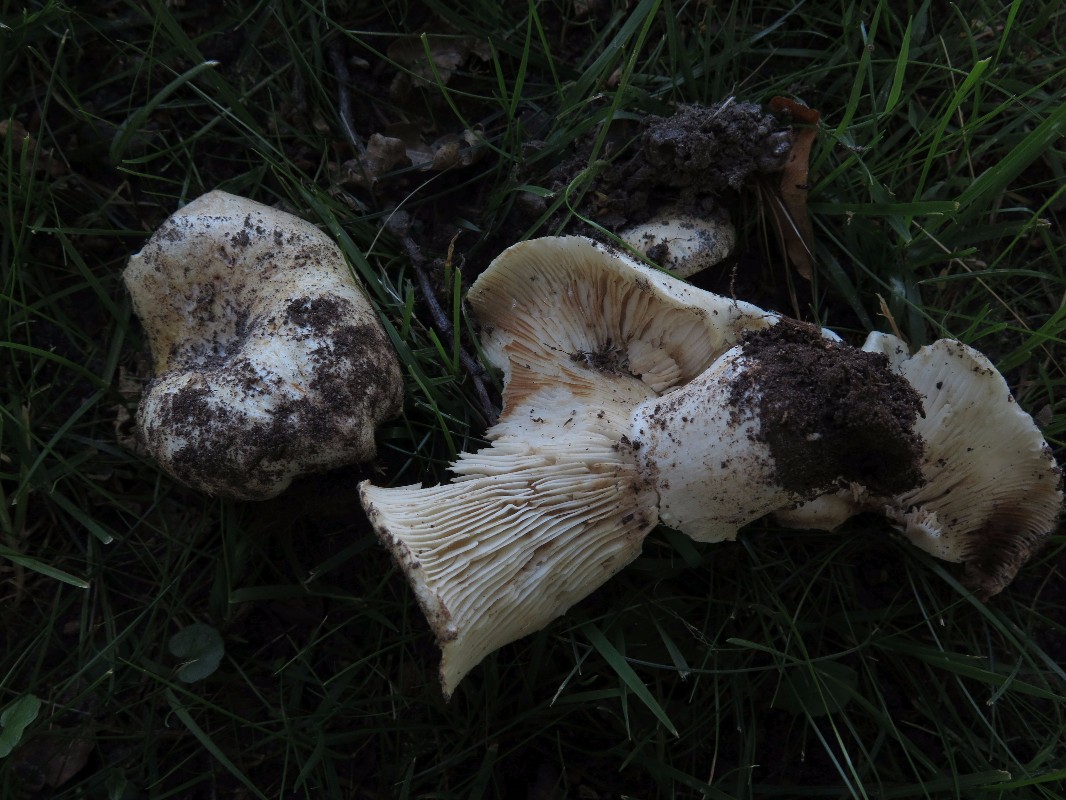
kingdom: Fungi
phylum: Basidiomycota
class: Agaricomycetes
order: Russulales
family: Russulaceae
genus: Russula
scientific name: Russula chloroides
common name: grønhalset tragt-skørhat
